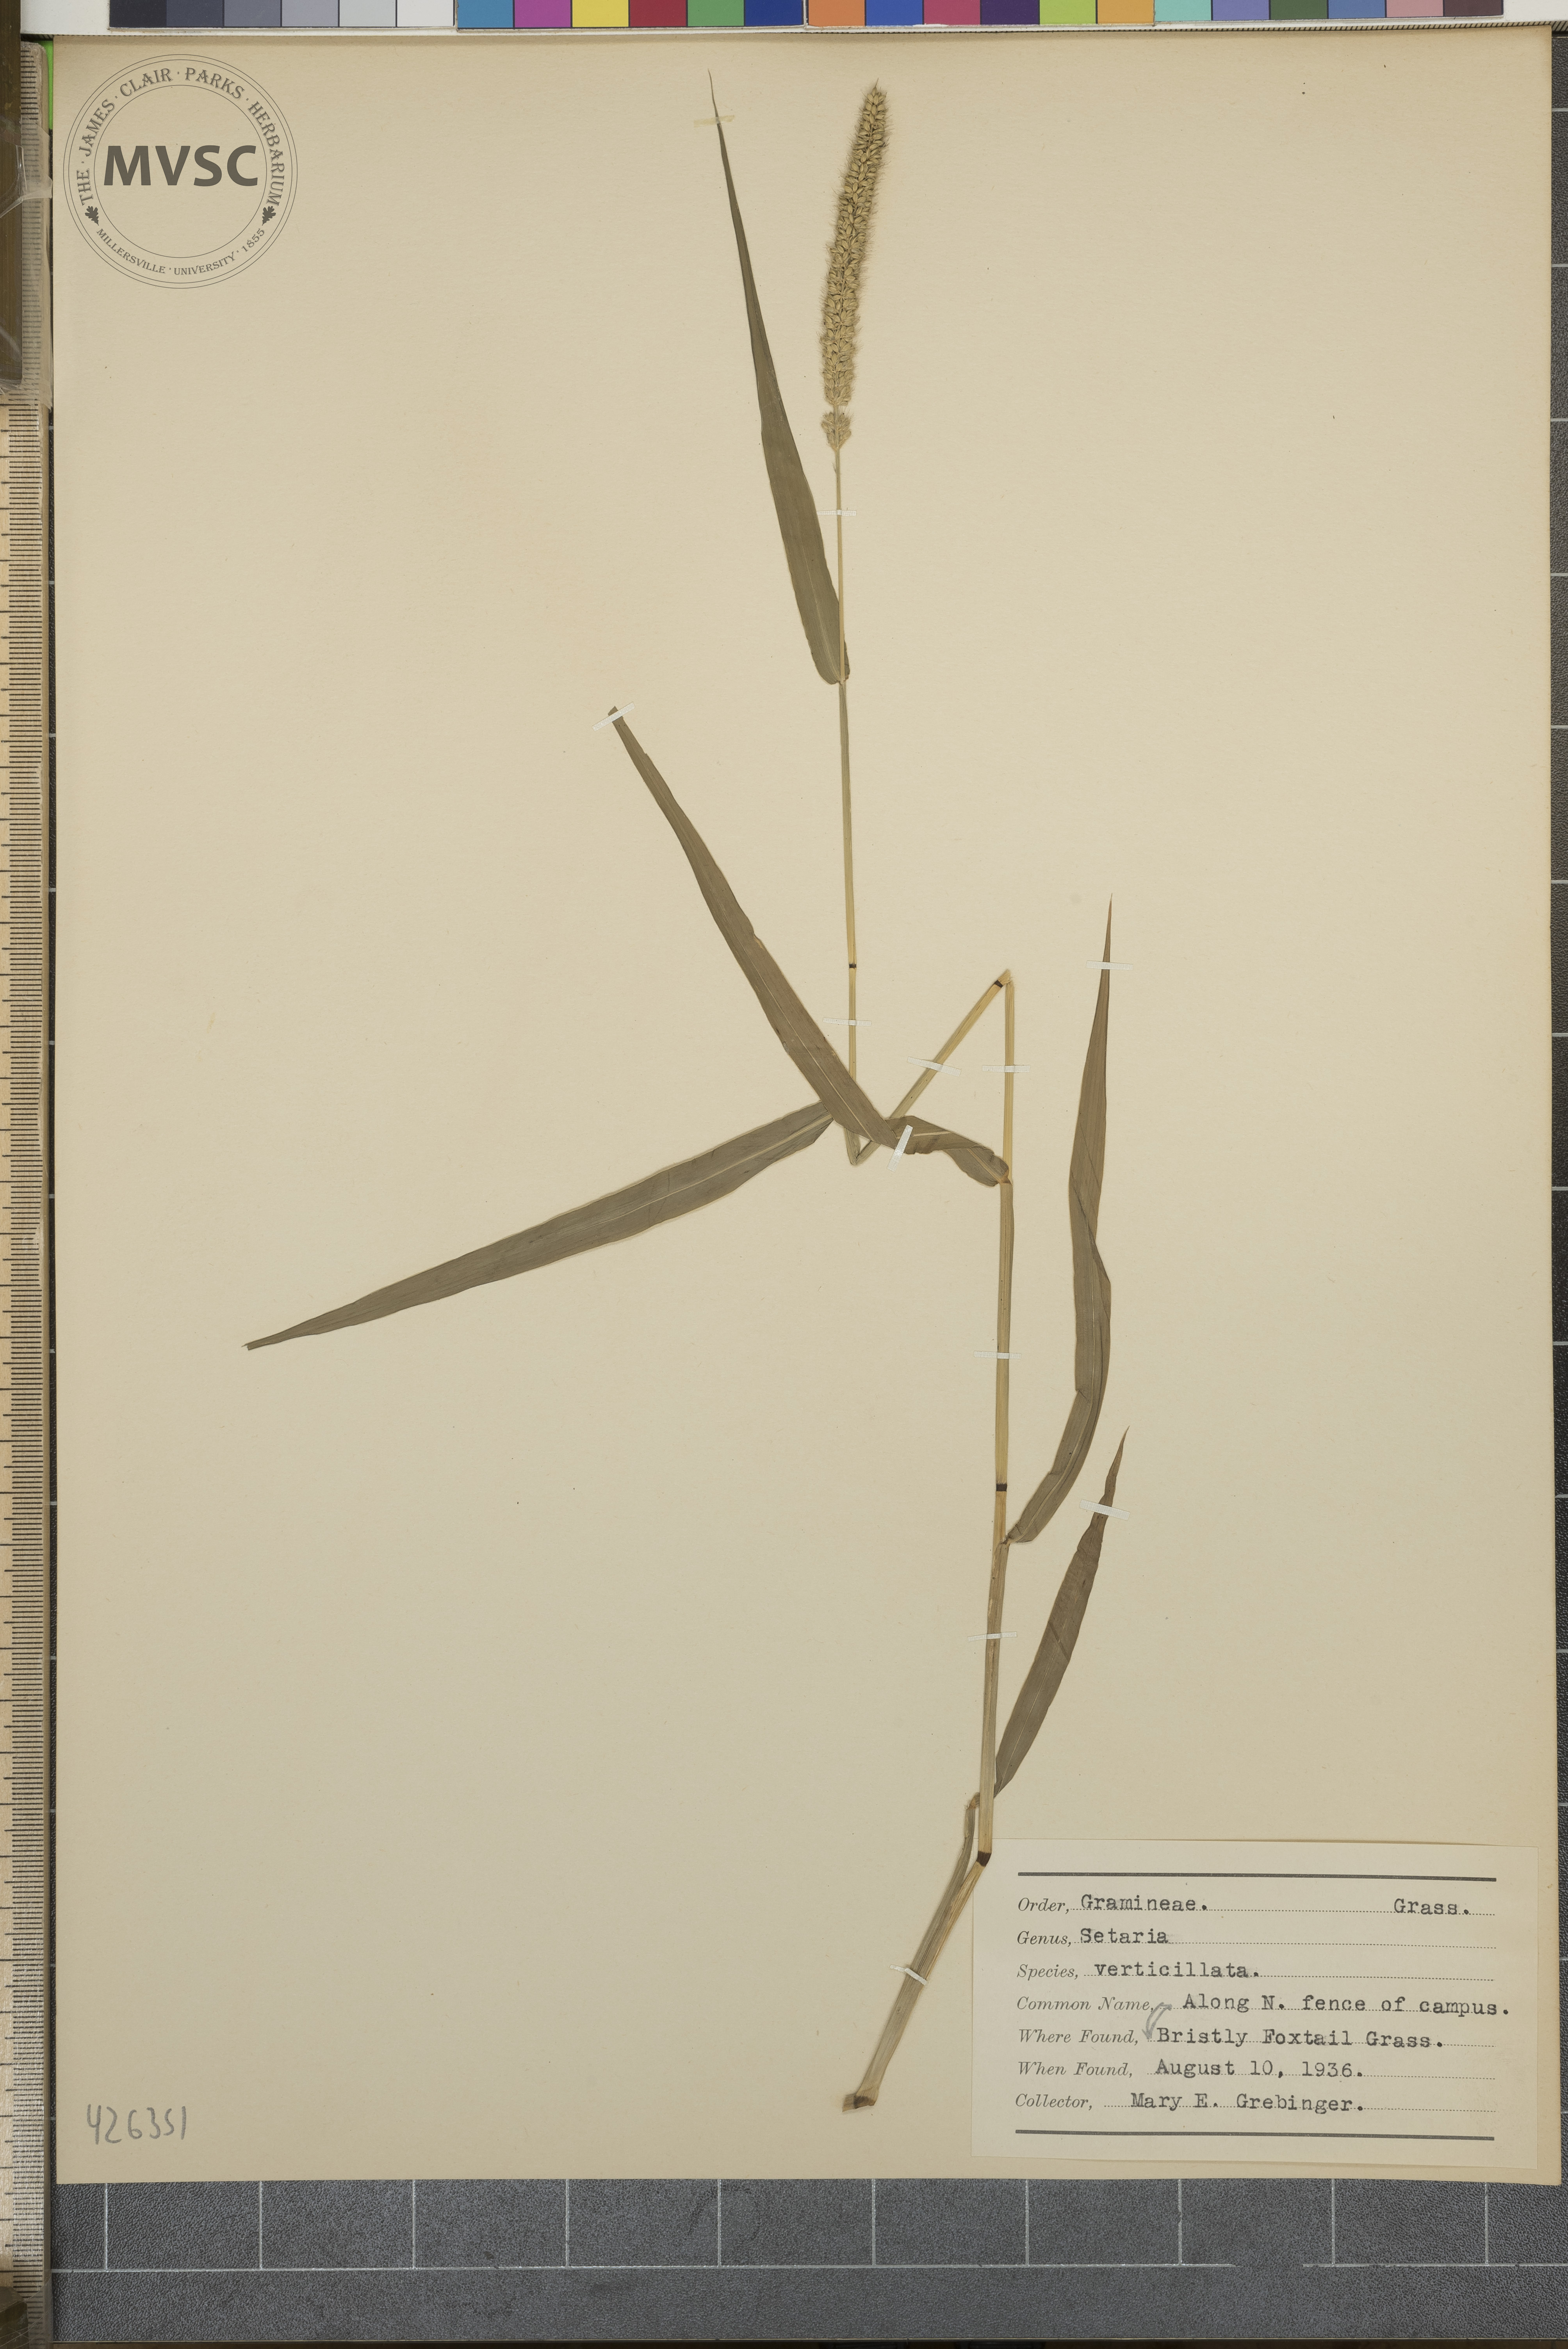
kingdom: Plantae
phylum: Tracheophyta
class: Liliopsida
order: Poales
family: Poaceae
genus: Setaria
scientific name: Setaria verticillata
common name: Bristly foxtail grass
